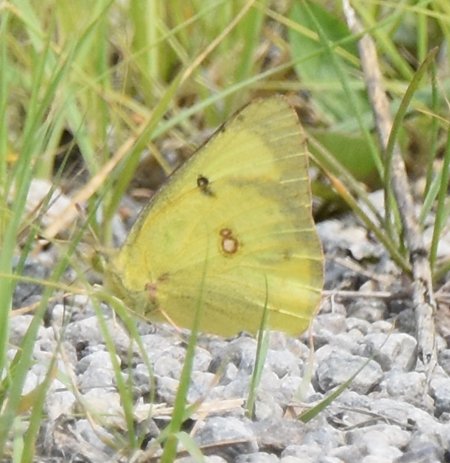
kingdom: Animalia
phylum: Arthropoda
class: Insecta
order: Lepidoptera
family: Pieridae
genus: Colias
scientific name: Colias philodice
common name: Clouded Sulphur
